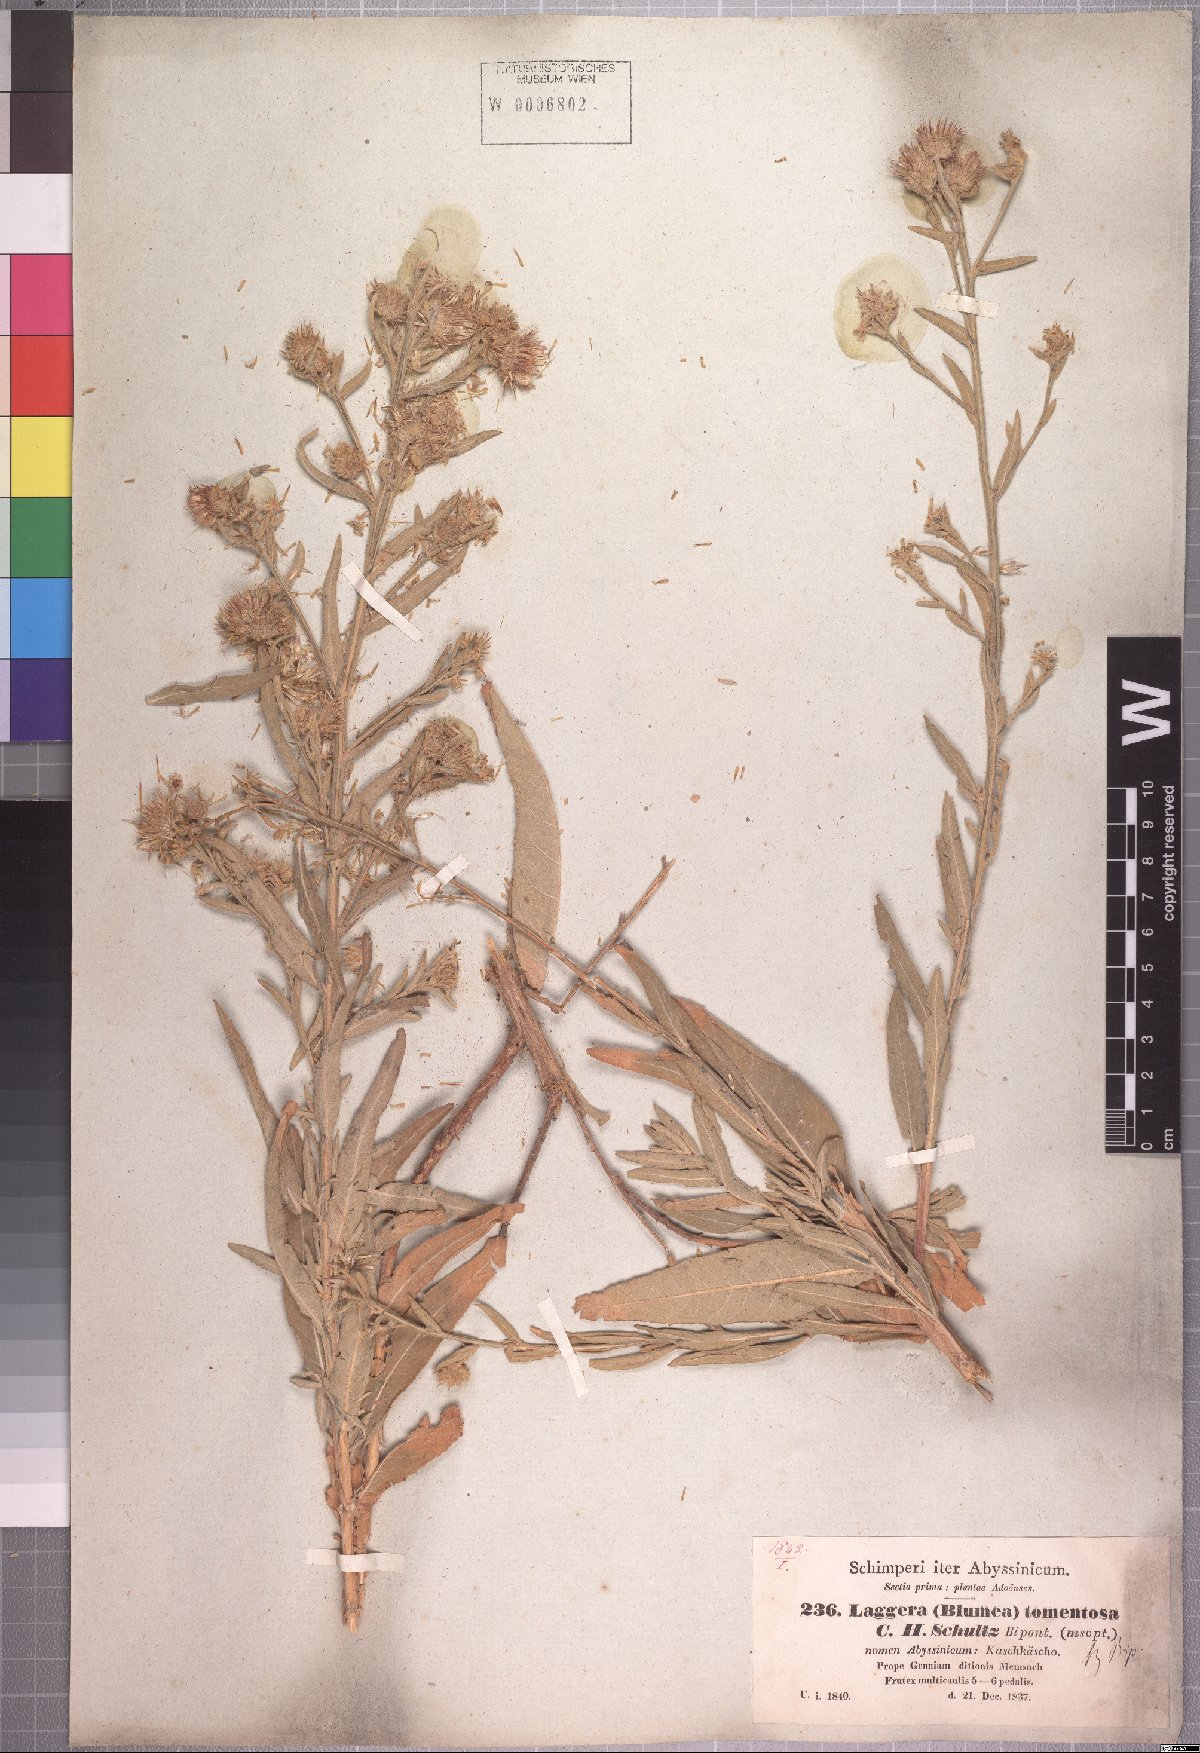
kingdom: Plantae
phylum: Tracheophyta
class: Magnoliopsida
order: Asterales
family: Asteraceae
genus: Laggera
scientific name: Laggera tomentosa
